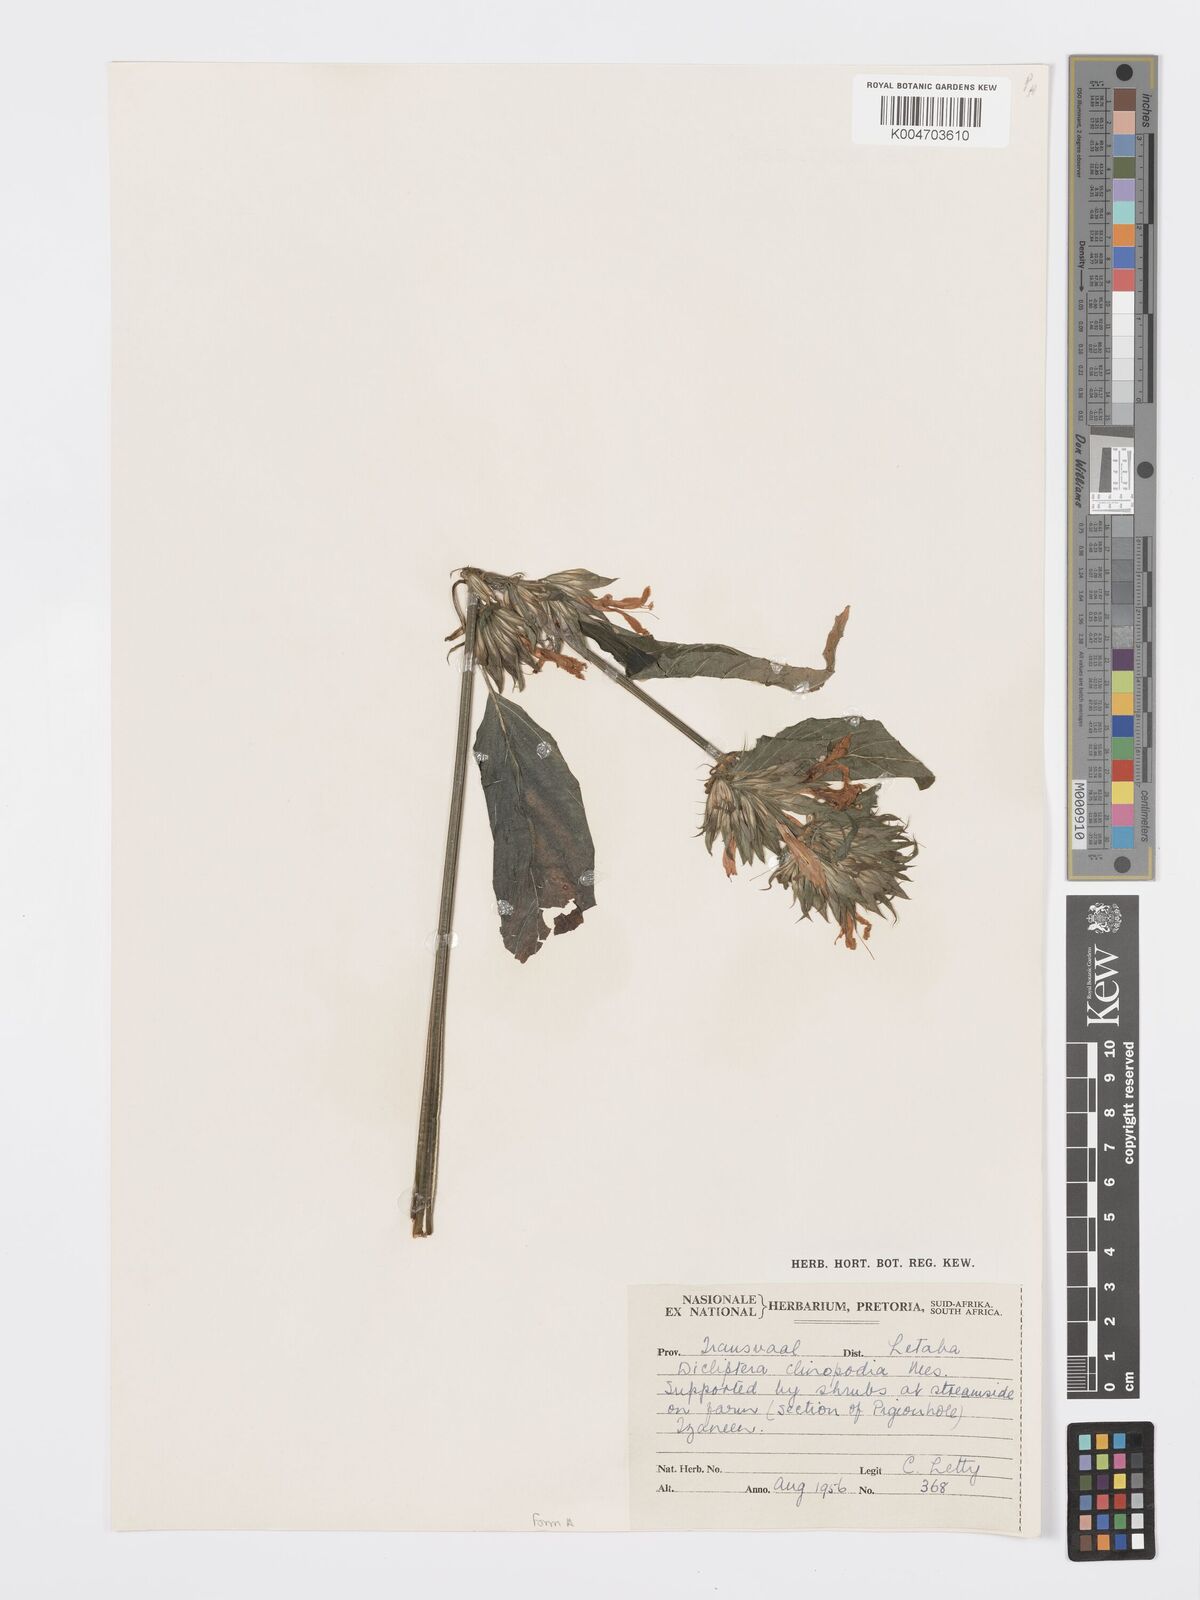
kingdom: Plantae
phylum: Tracheophyta
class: Magnoliopsida
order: Lamiales
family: Acanthaceae
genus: Dicliptera
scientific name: Dicliptera clinopodia
